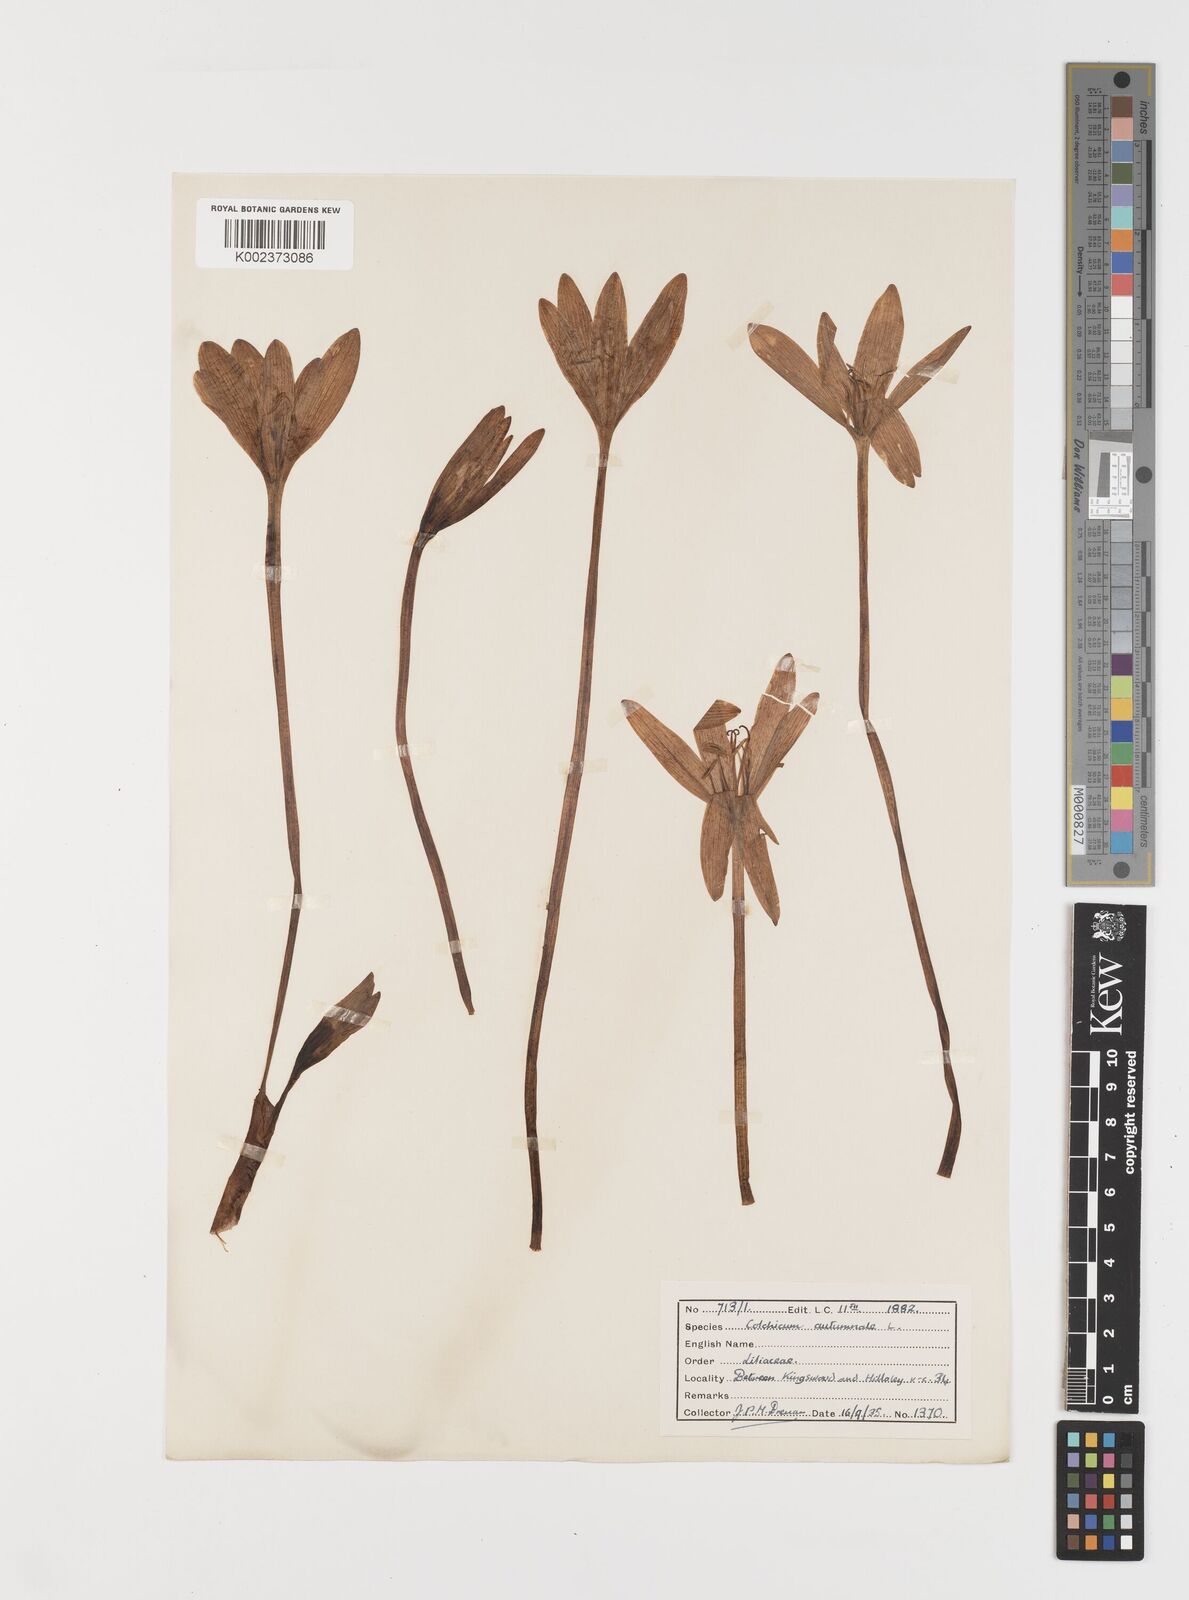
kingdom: Plantae
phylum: Tracheophyta
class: Liliopsida
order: Liliales
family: Colchicaceae
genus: Colchicum
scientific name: Colchicum autumnale
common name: Autumn crocus
